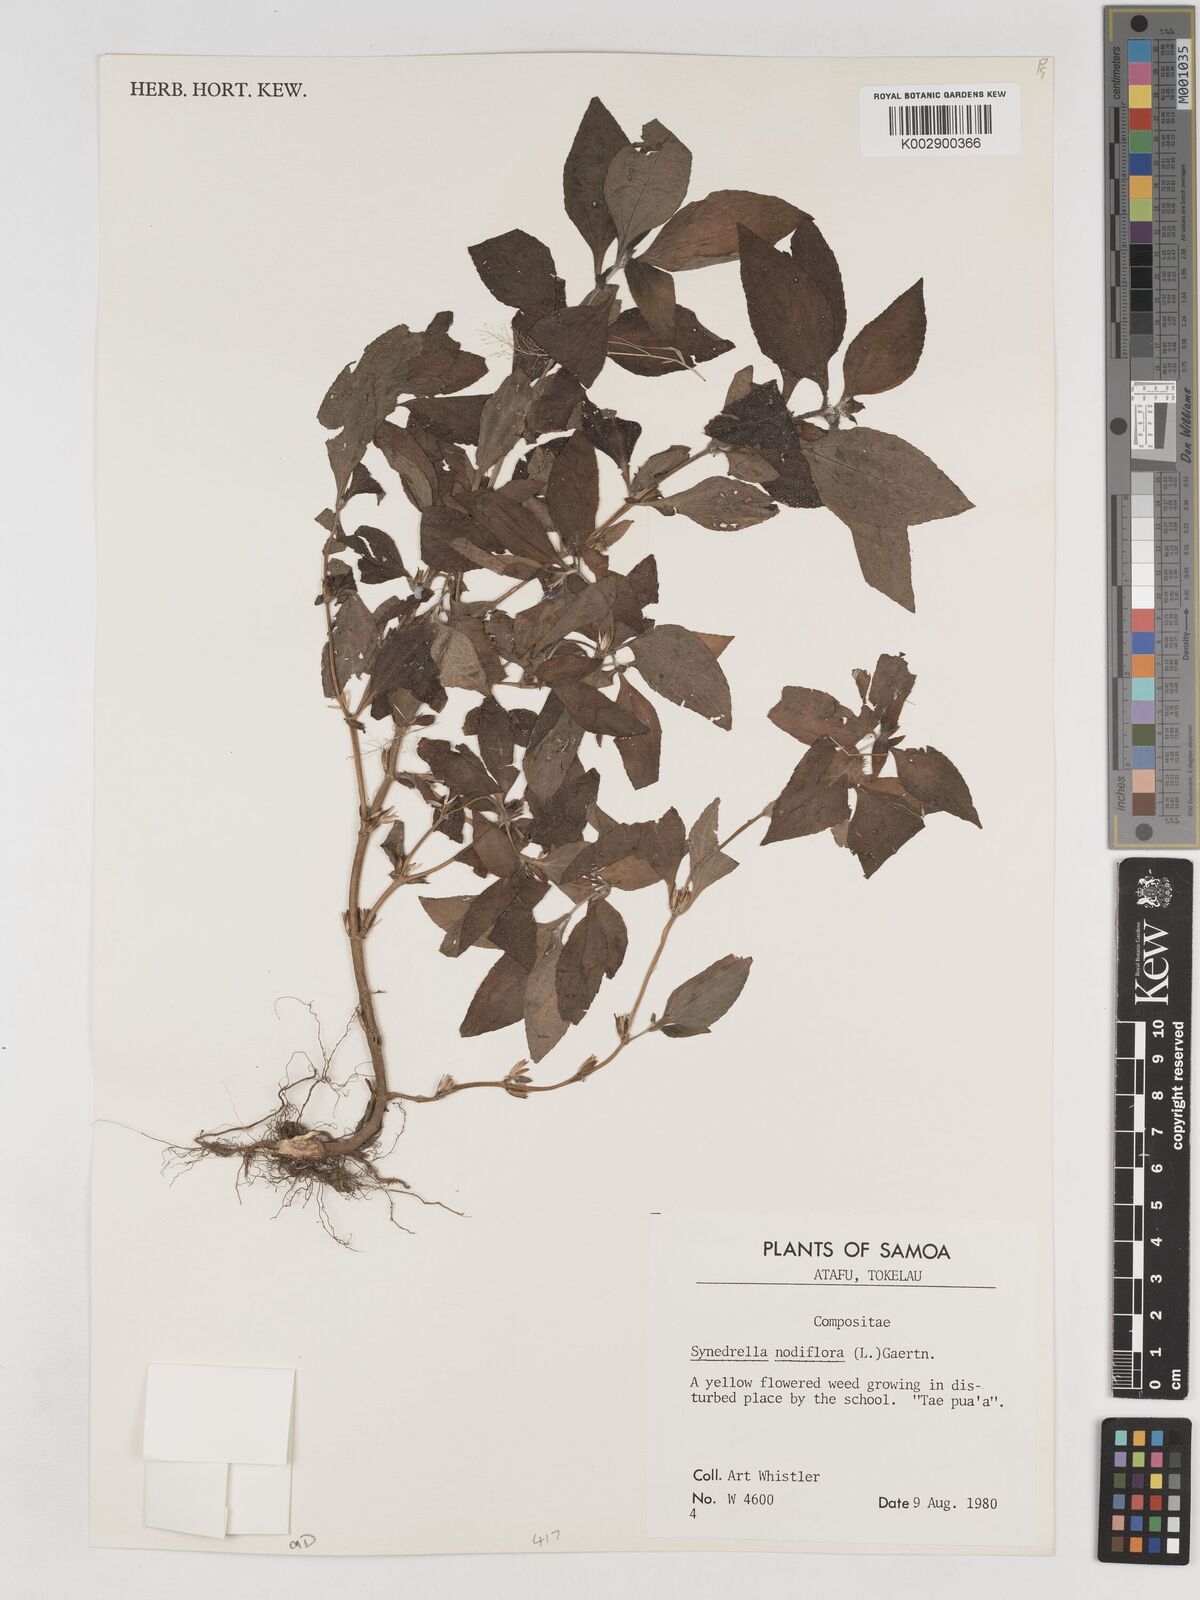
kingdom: Plantae
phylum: Tracheophyta
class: Magnoliopsida
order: Asterales
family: Asteraceae
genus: Synedrella
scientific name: Synedrella nodiflora
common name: Nodeweed
